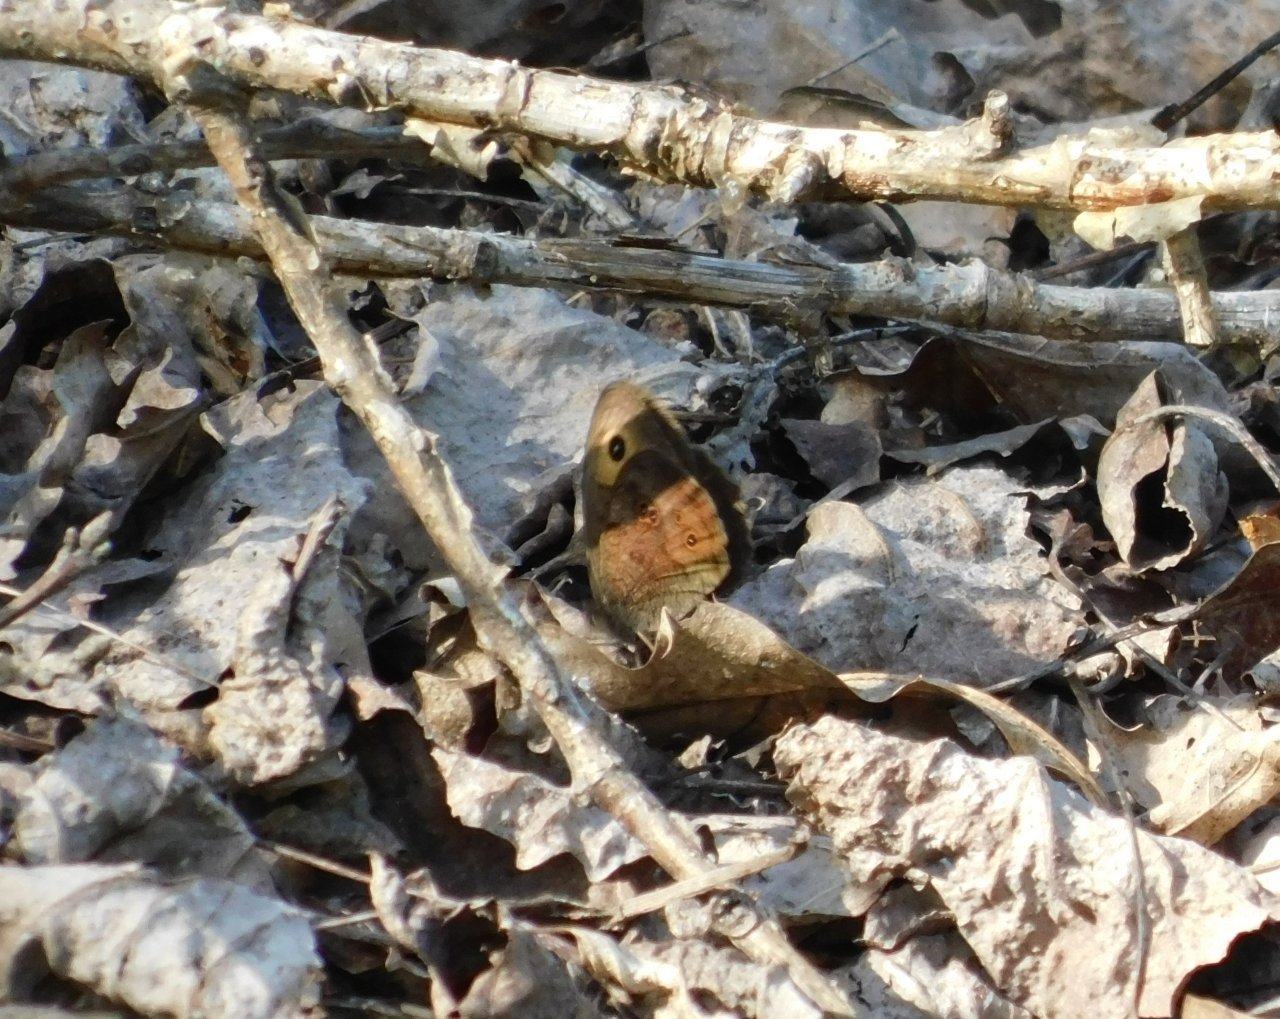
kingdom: Animalia
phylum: Arthropoda
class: Insecta
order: Lepidoptera
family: Nymphalidae
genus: Cercyonis
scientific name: Cercyonis pegala
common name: Common Wood-Nymph
